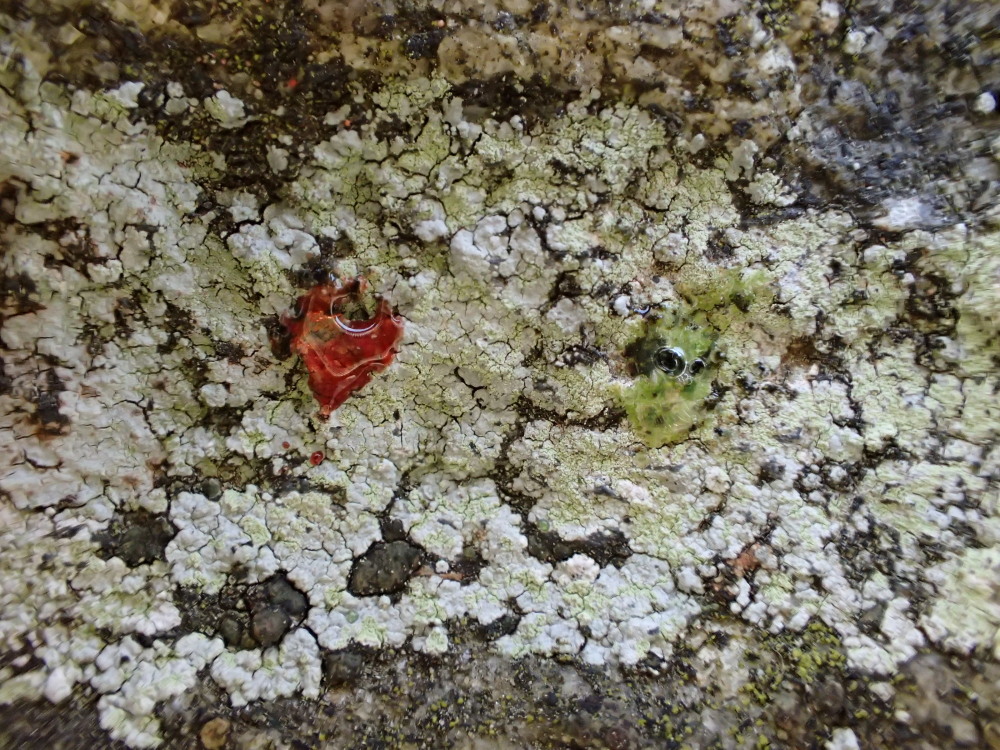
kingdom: Fungi
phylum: Ascomycota
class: Lecanoromycetes
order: Baeomycetales
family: Trapeliaceae
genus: Kleopowiella
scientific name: Kleopowiella placodioides
